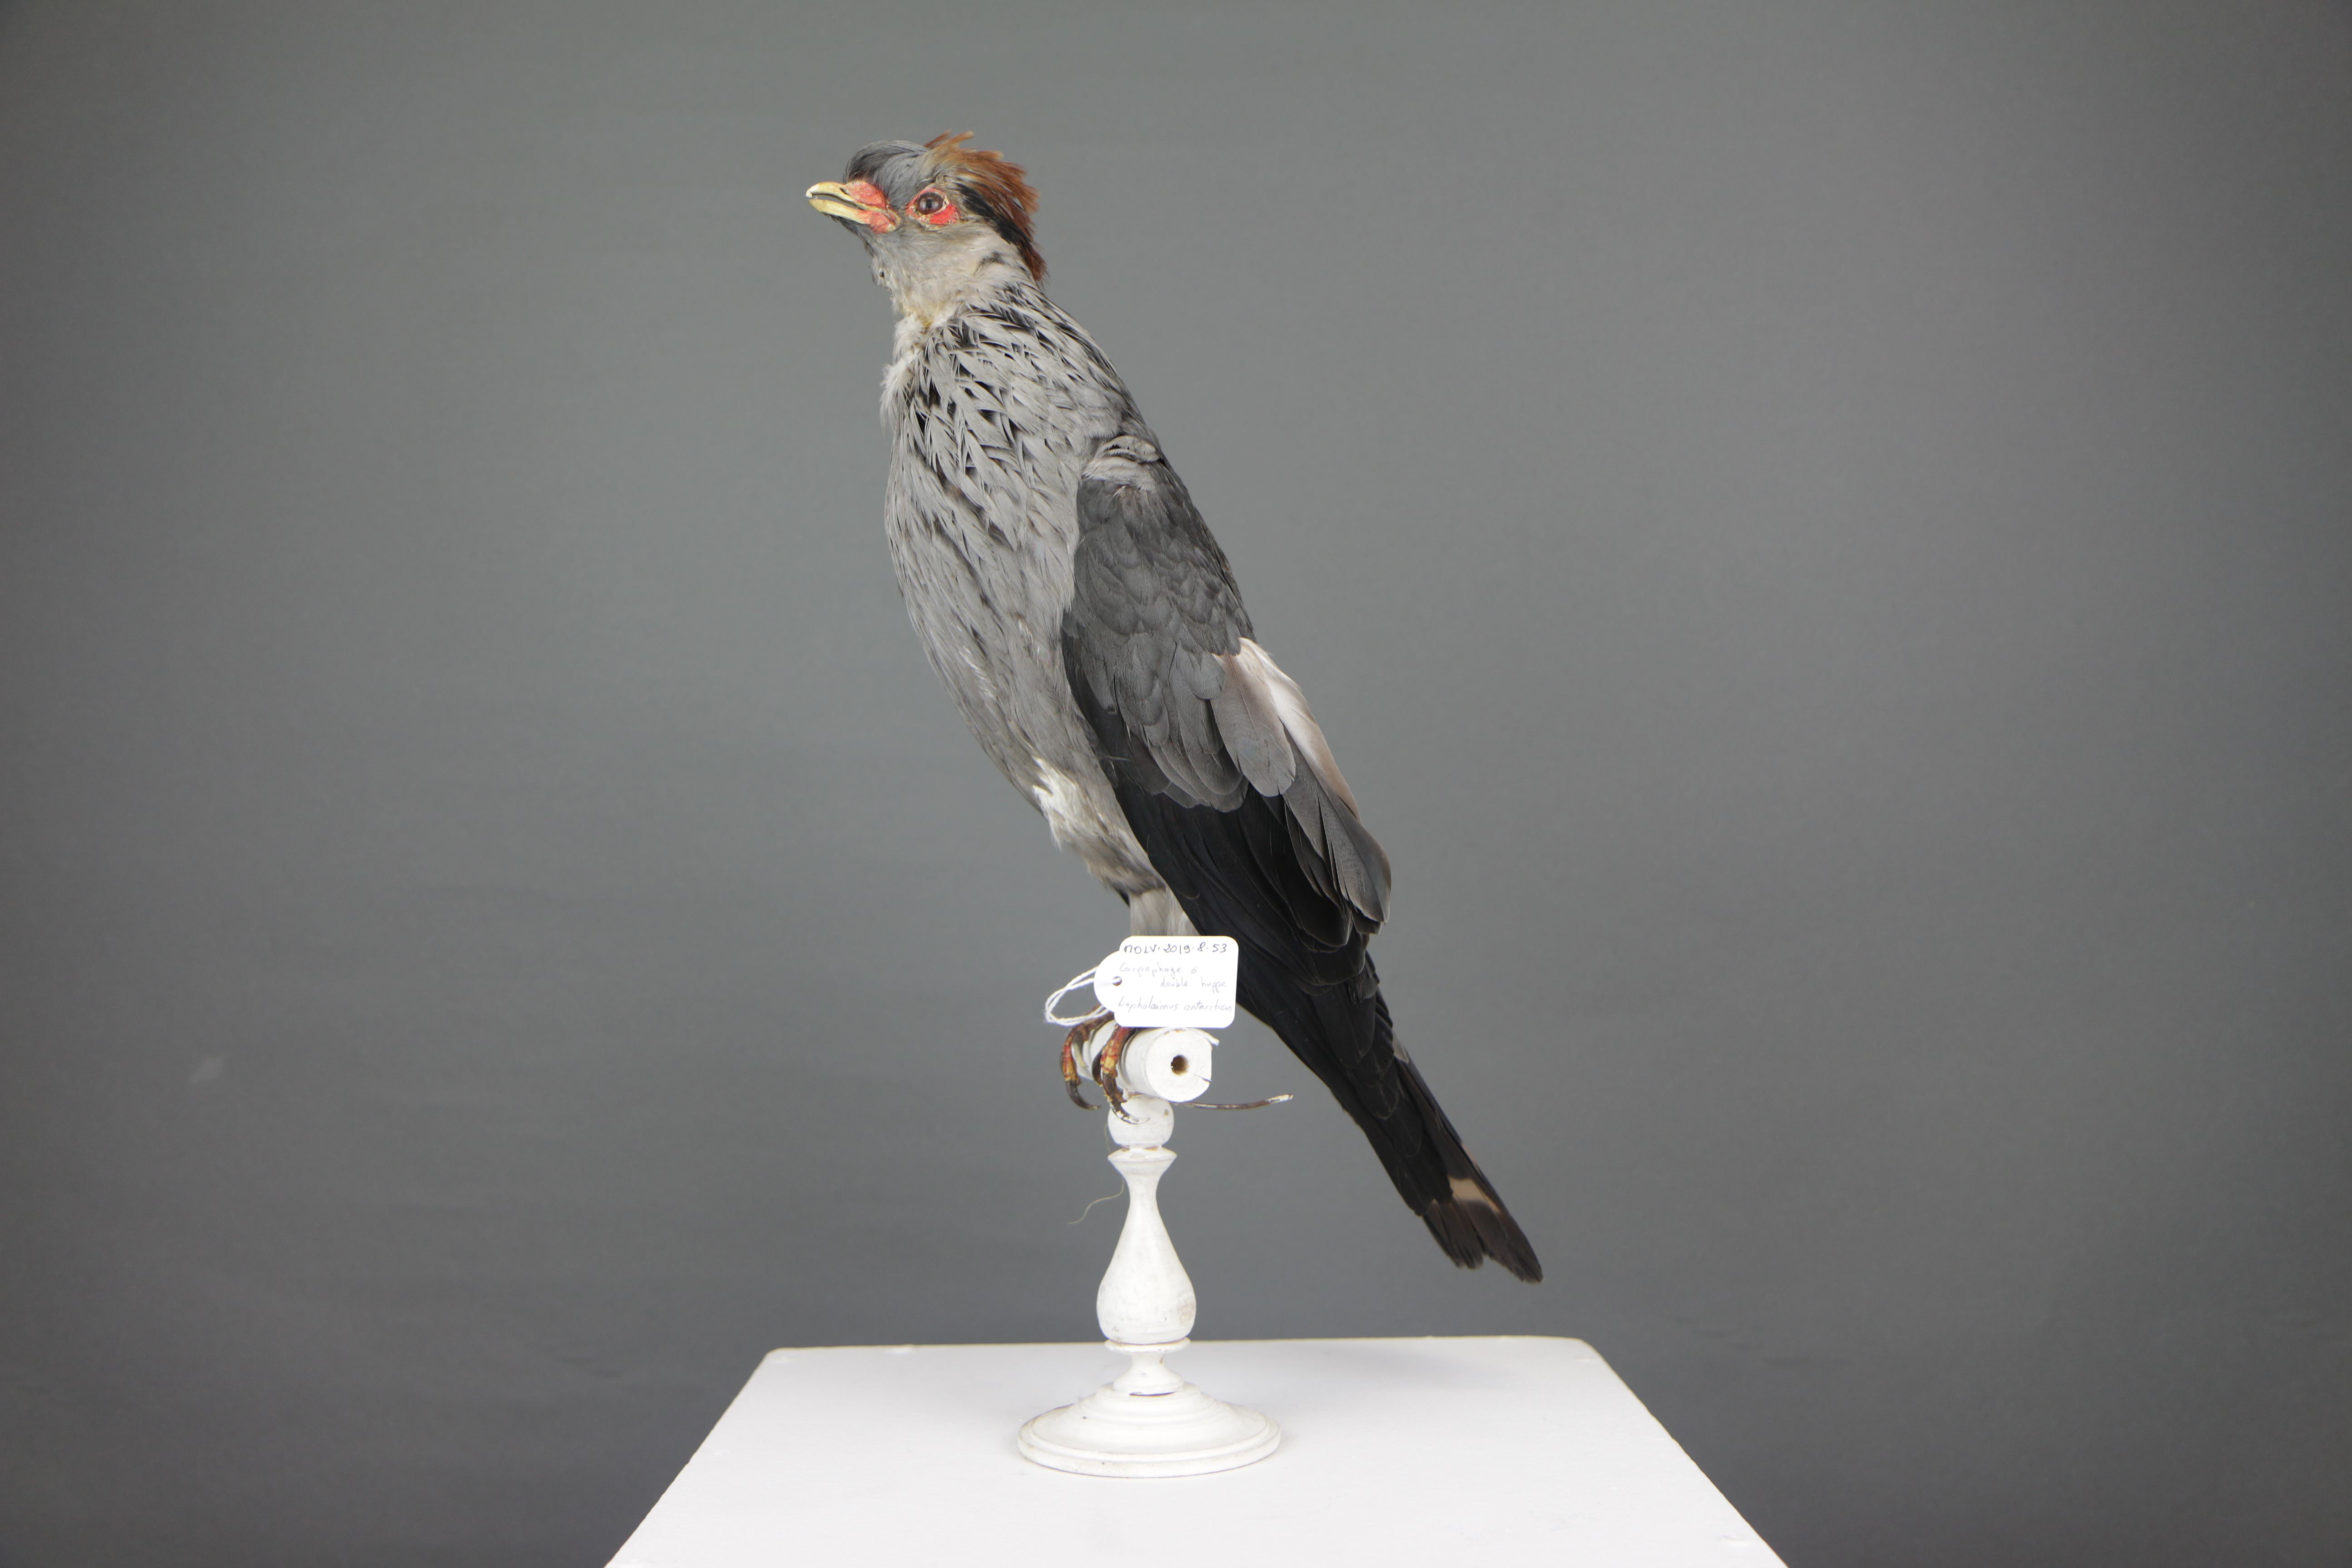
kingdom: Animalia
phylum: Chordata
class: Aves
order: Columbiformes
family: Columbidae
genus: Lopholaimus
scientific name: Lopholaimus antarcticus
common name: Topknot pigeon
